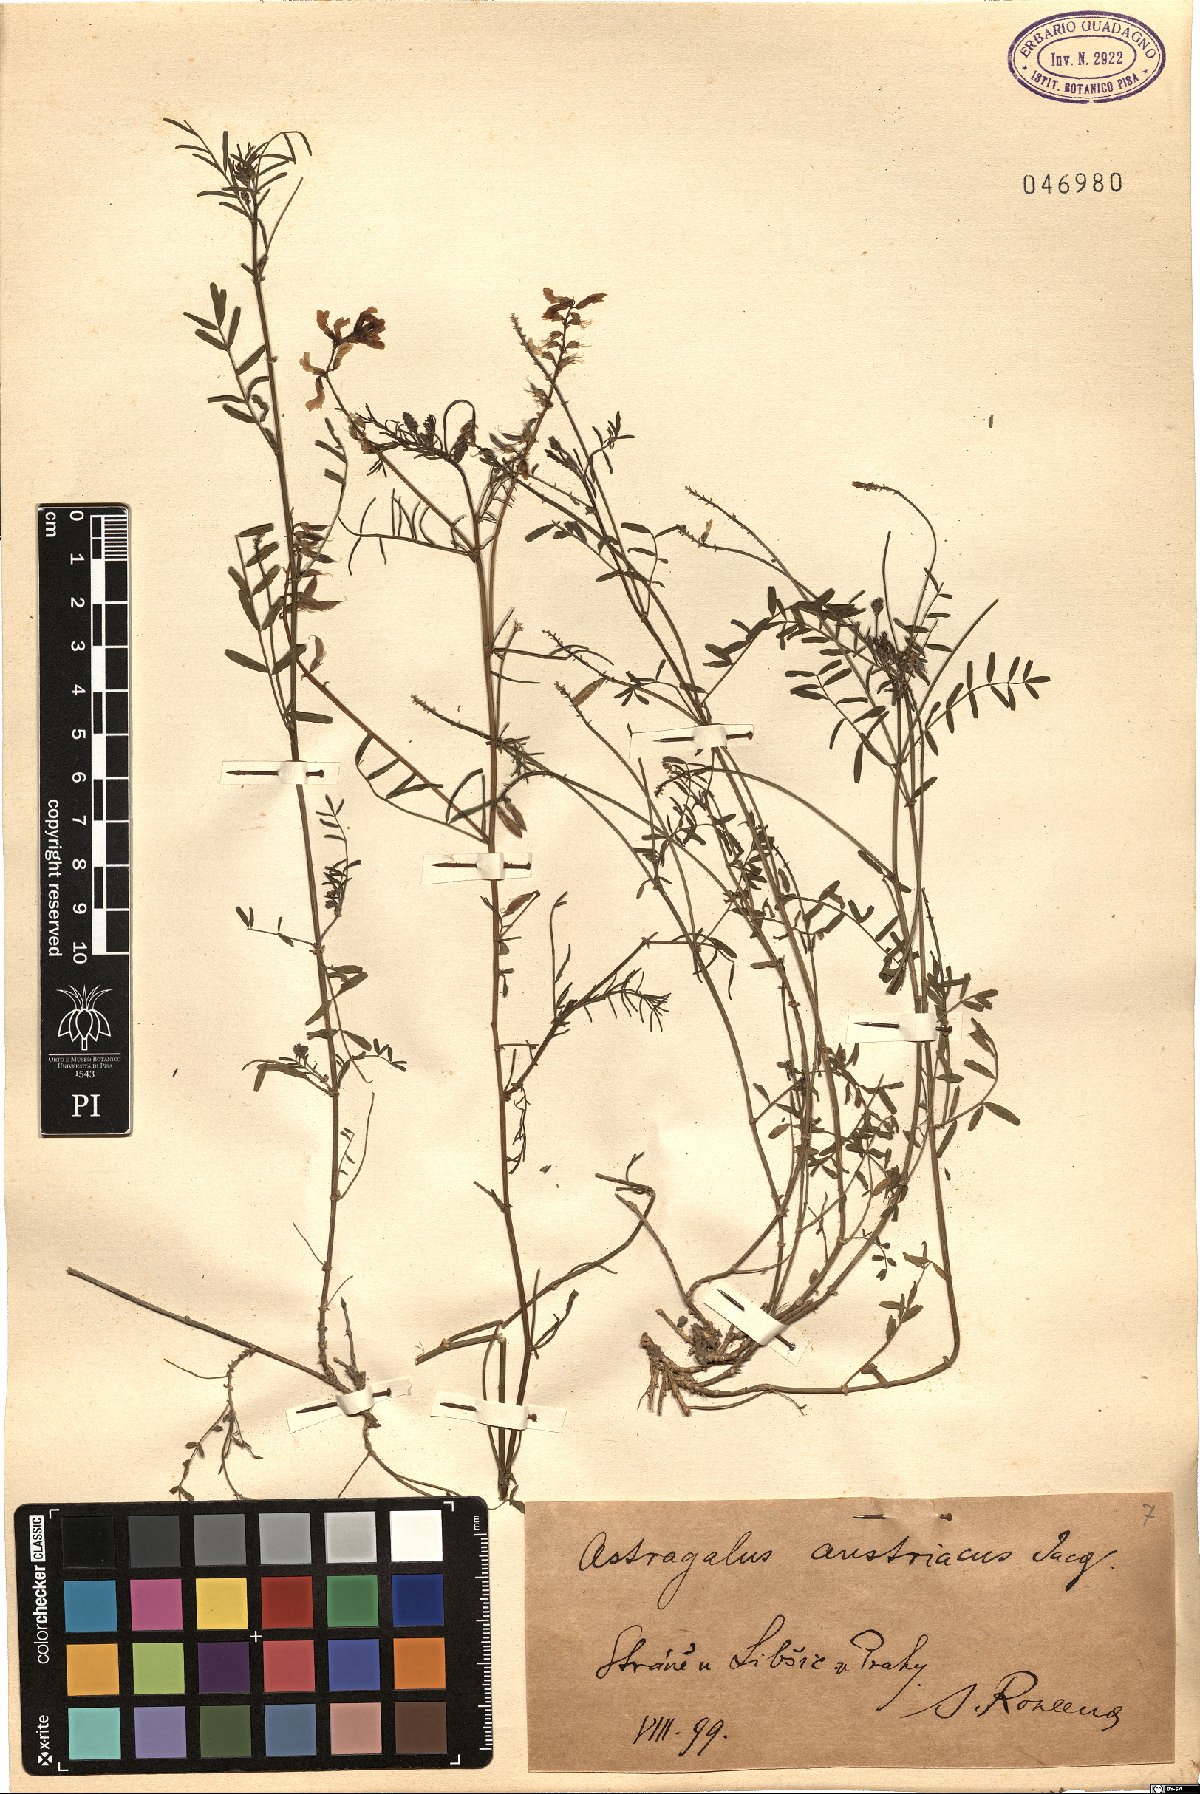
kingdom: Plantae
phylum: Tracheophyta
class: Magnoliopsida
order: Fabales
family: Fabaceae
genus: Astragalus
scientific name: Astragalus austriacus
